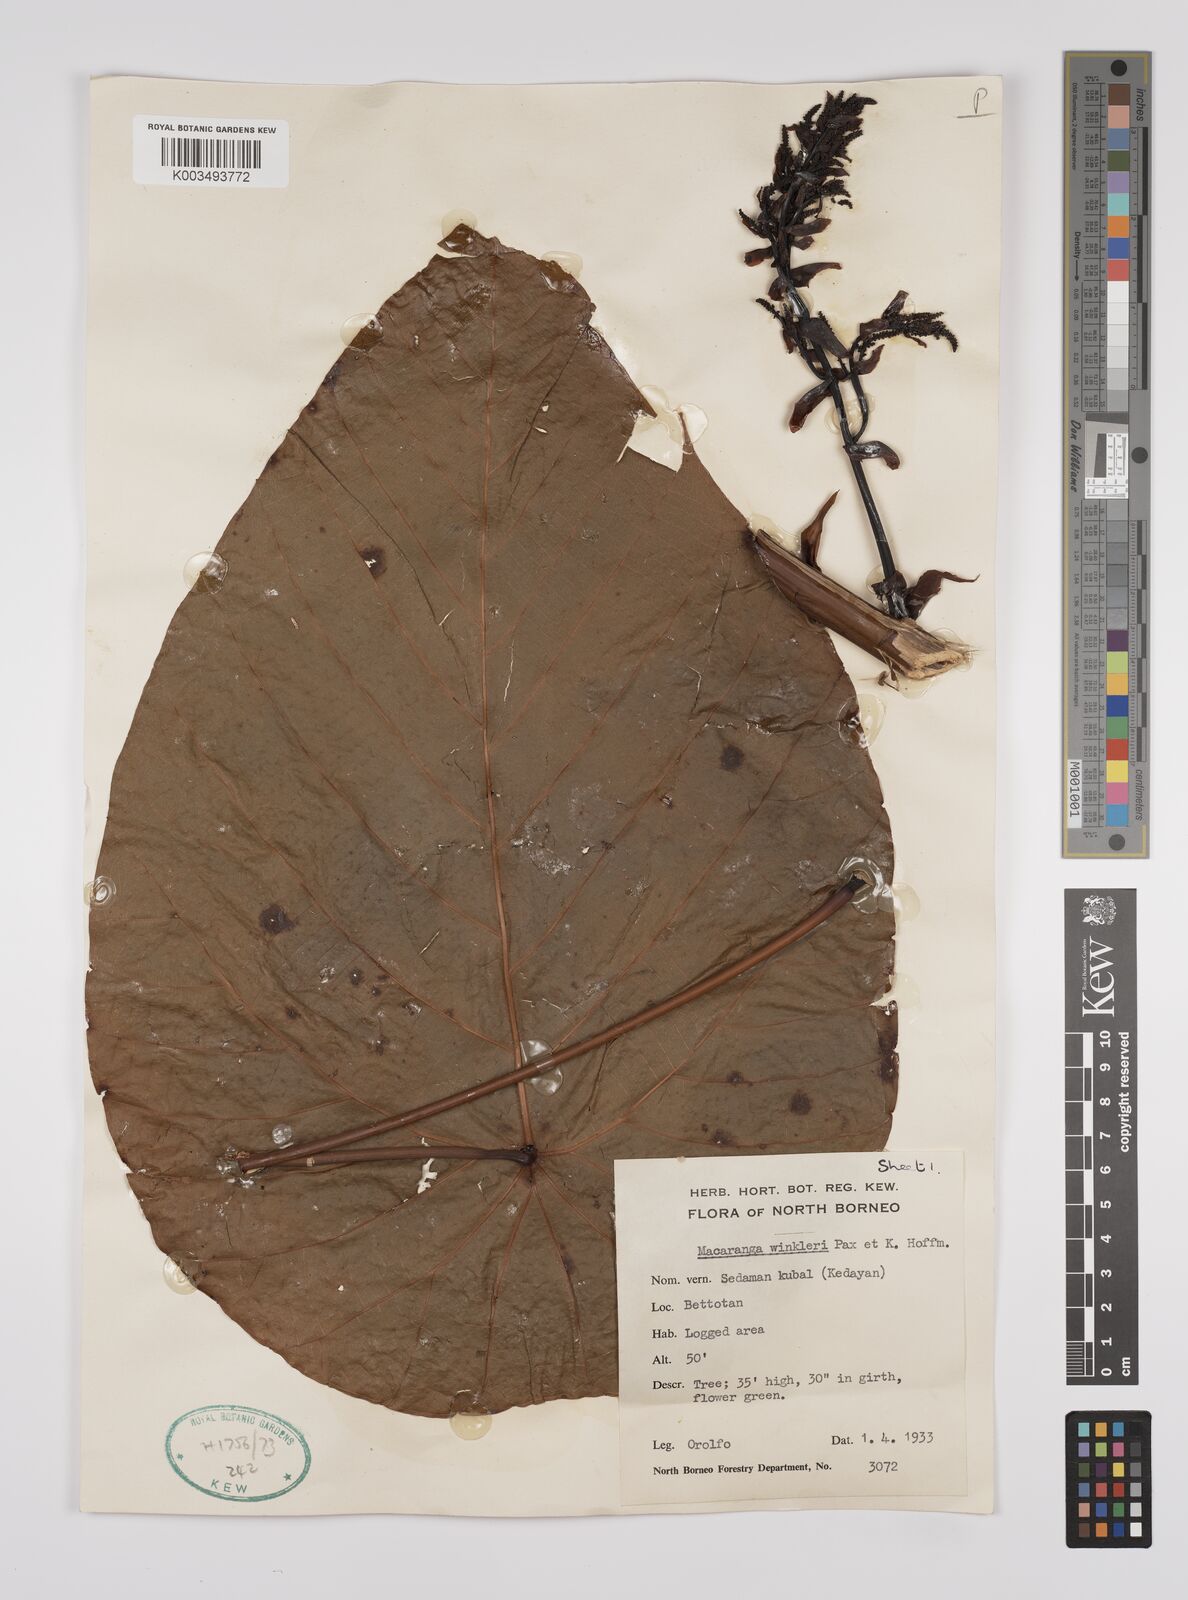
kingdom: Plantae
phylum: Tracheophyta
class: Magnoliopsida
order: Malpighiales
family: Euphorbiaceae
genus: Macaranga
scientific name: Macaranga winkleri
